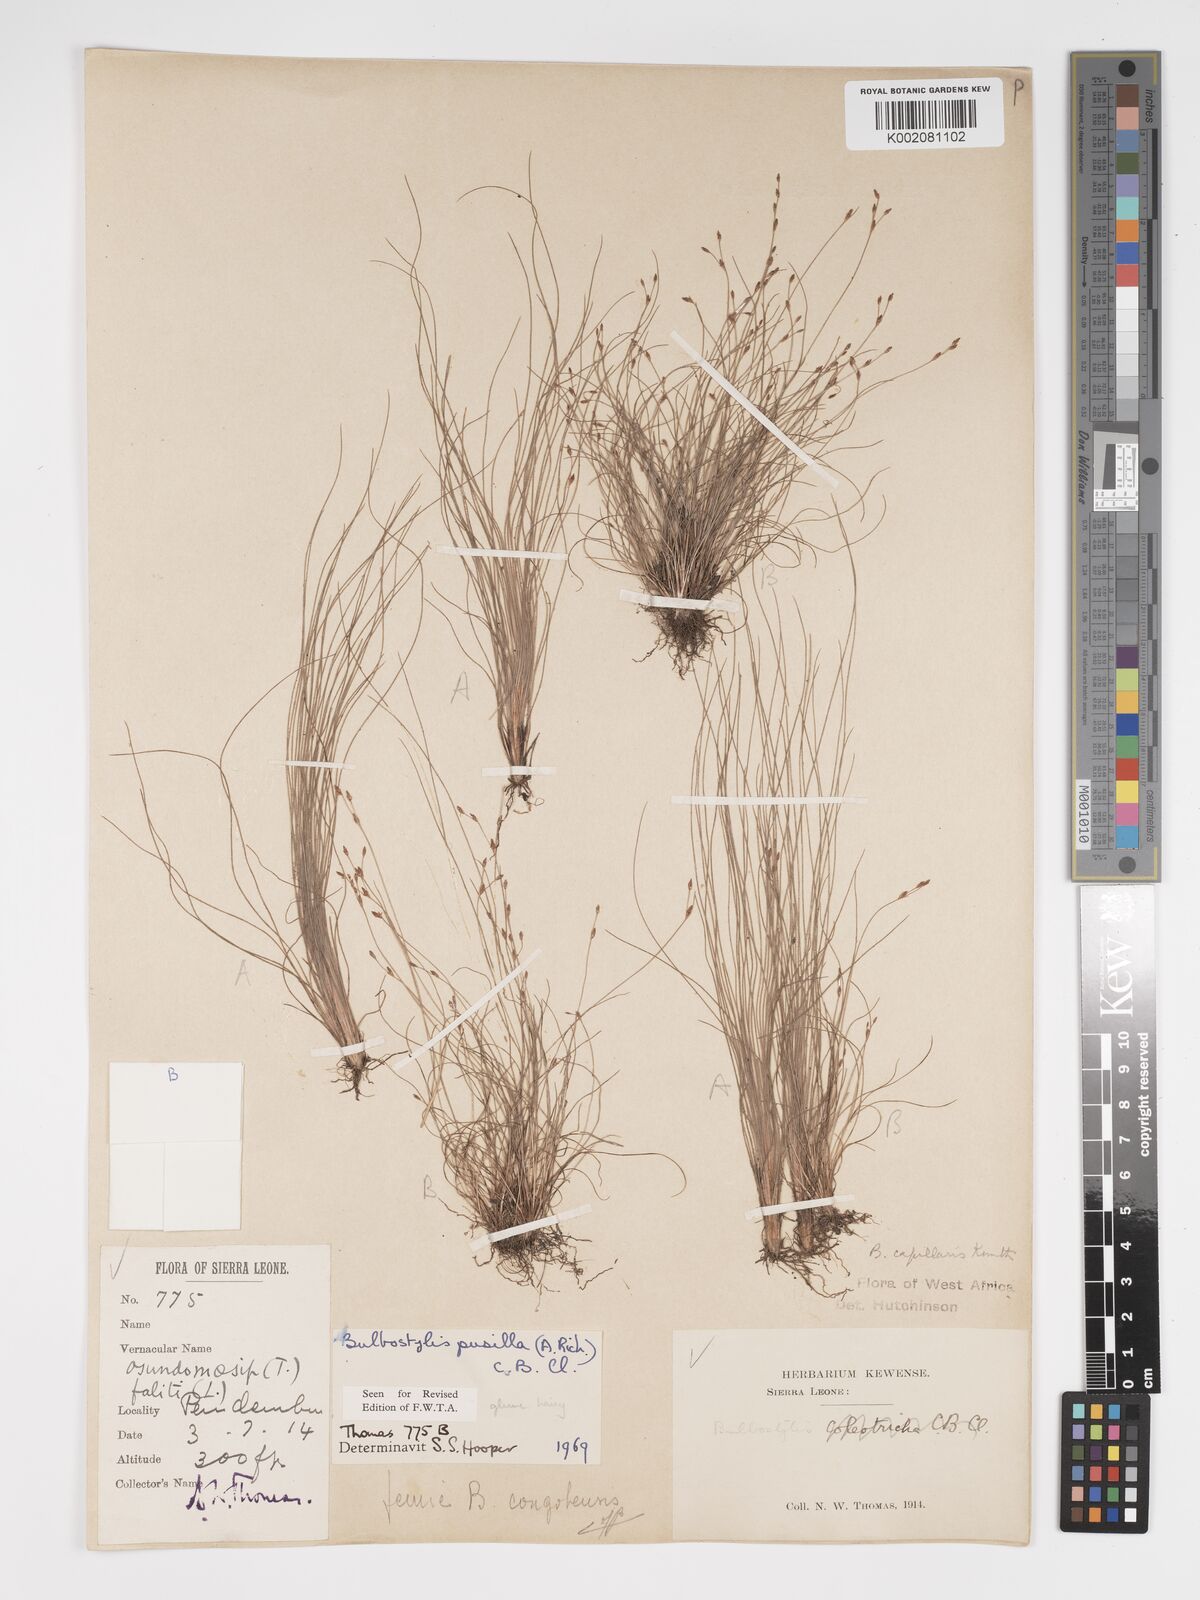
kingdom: Plantae
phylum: Tracheophyta
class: Liliopsida
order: Poales
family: Cyperaceae
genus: Bulbostylis
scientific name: Bulbostylis pusilla
